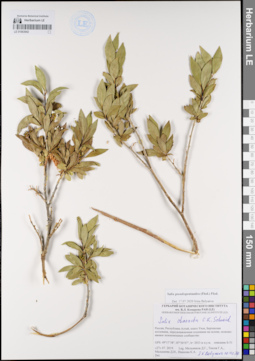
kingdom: Plantae
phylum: Tracheophyta
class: Magnoliopsida
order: Malpighiales
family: Salicaceae
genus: Salix
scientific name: Salix pseudopentandra
